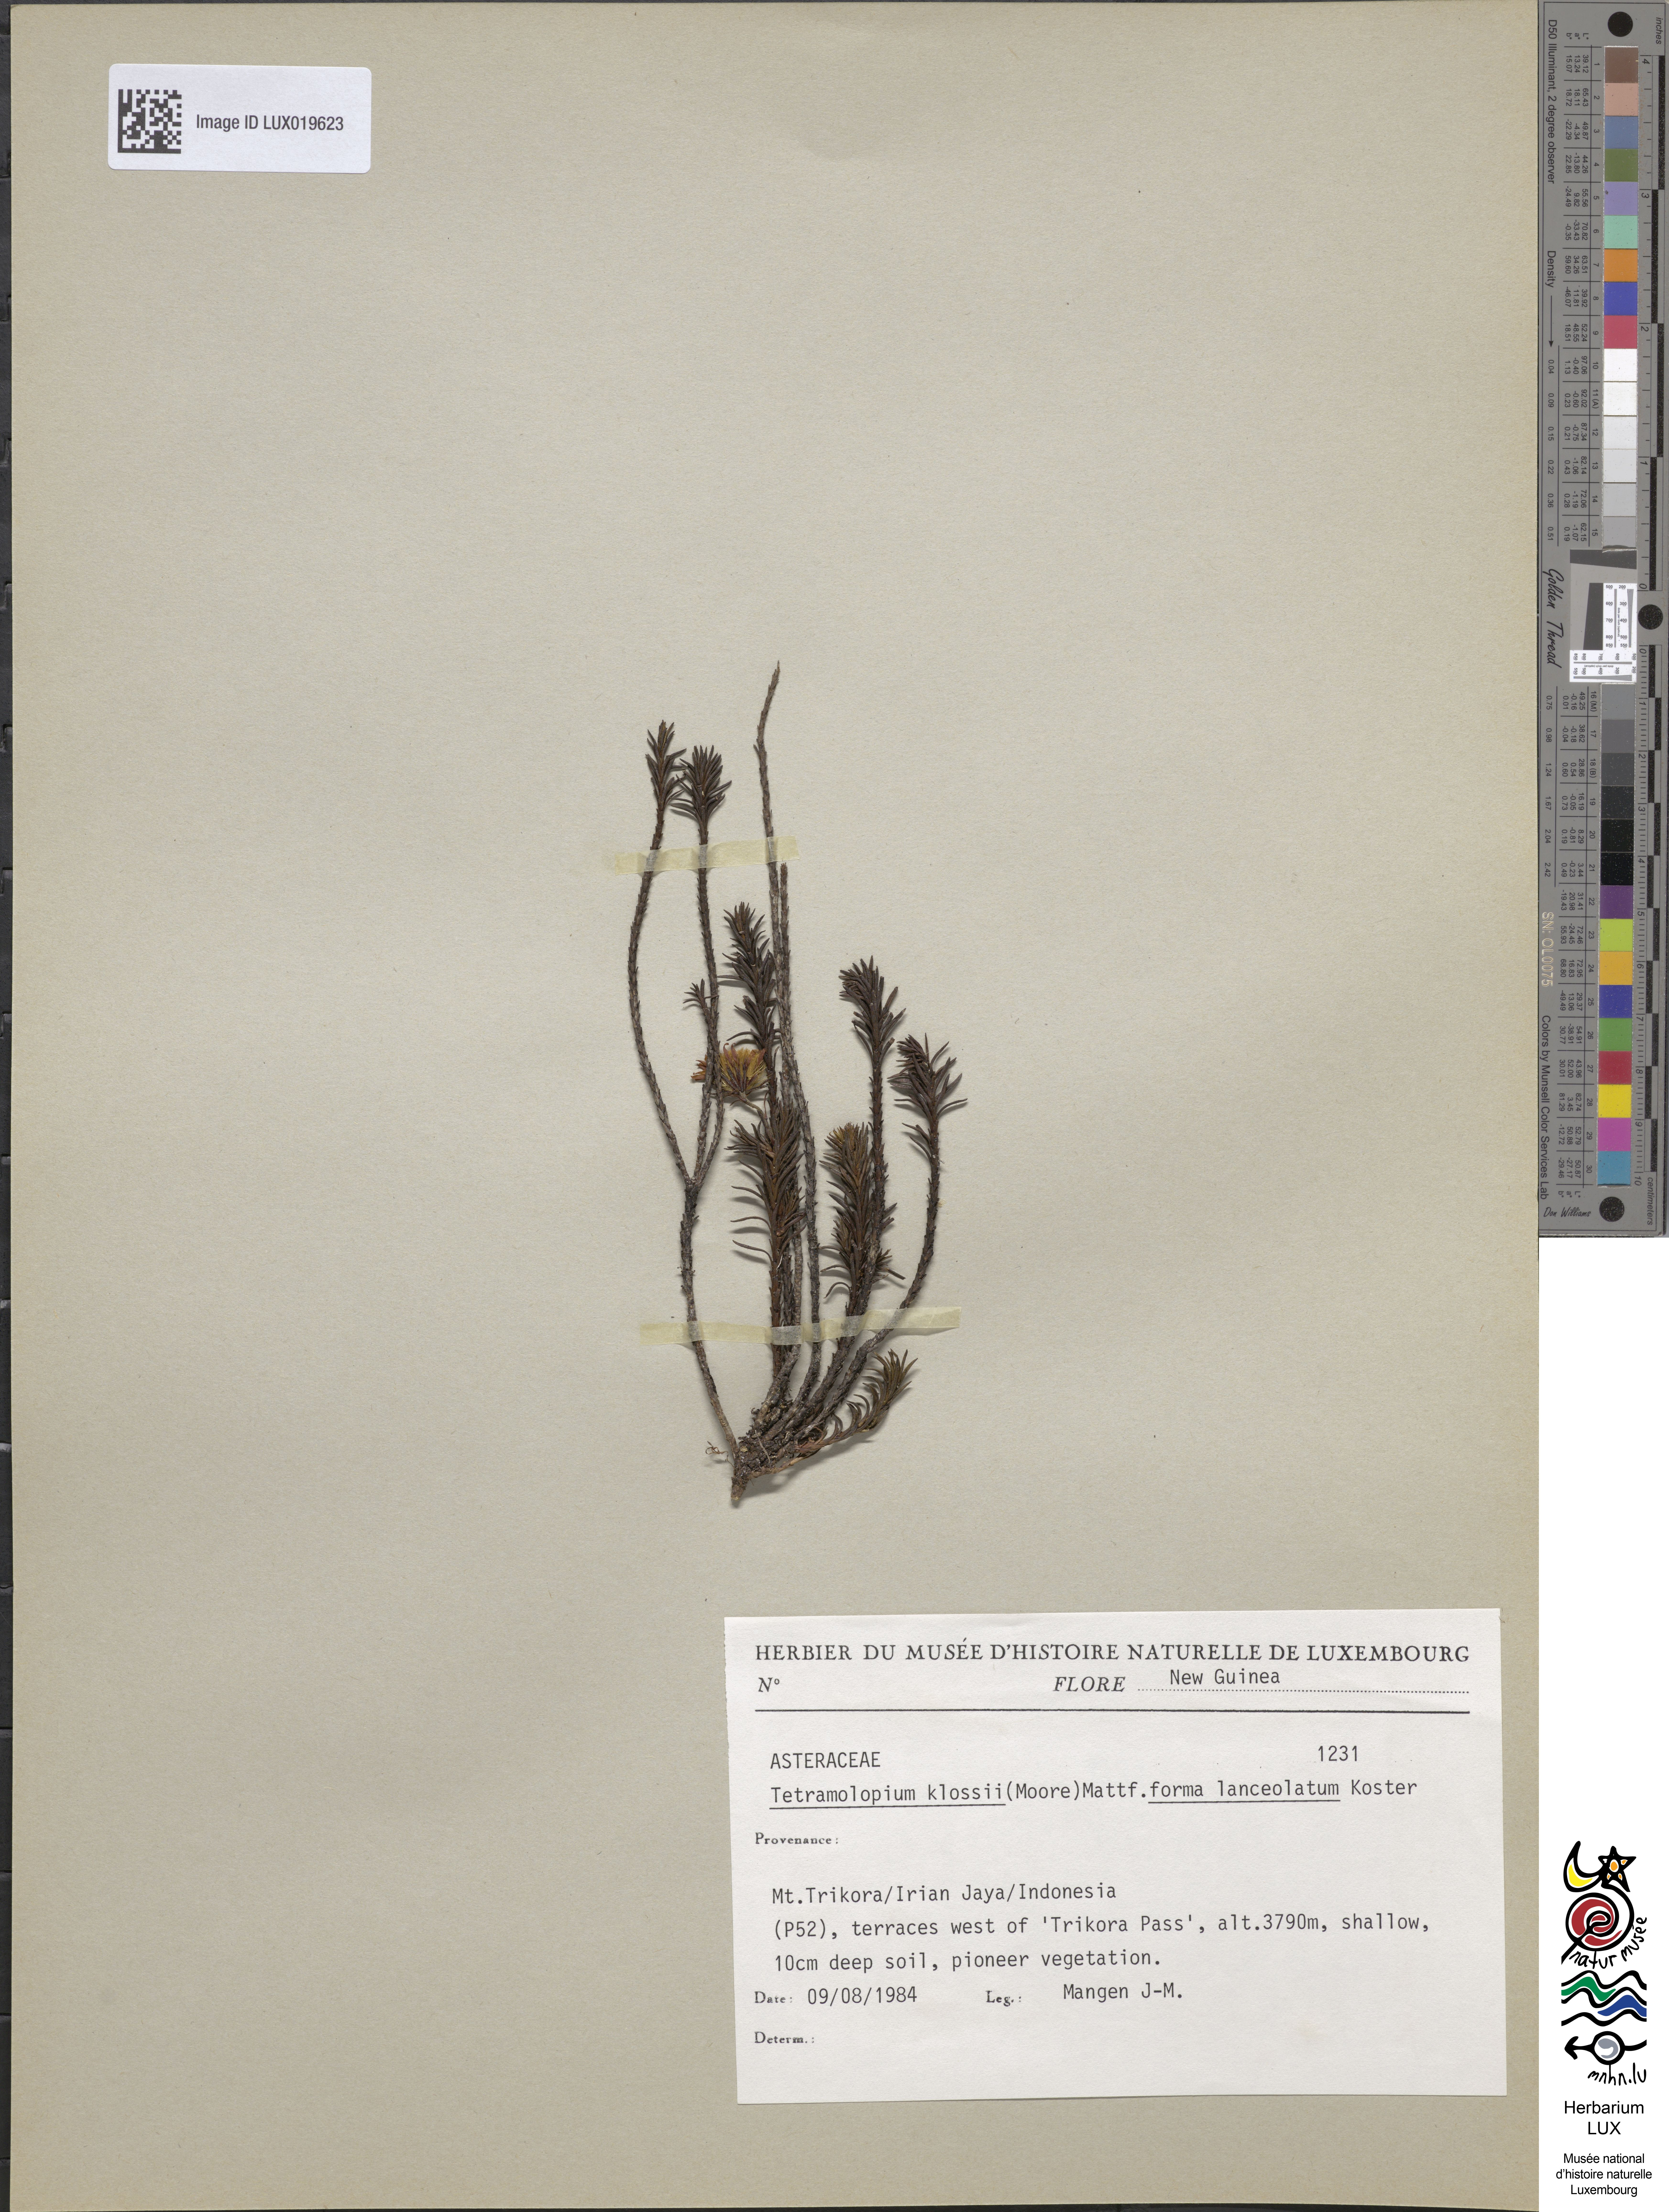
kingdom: Plantae
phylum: Tracheophyta
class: Magnoliopsida
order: Asterales
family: Asteraceae
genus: Tetramolopium
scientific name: Tetramolopium klossii
